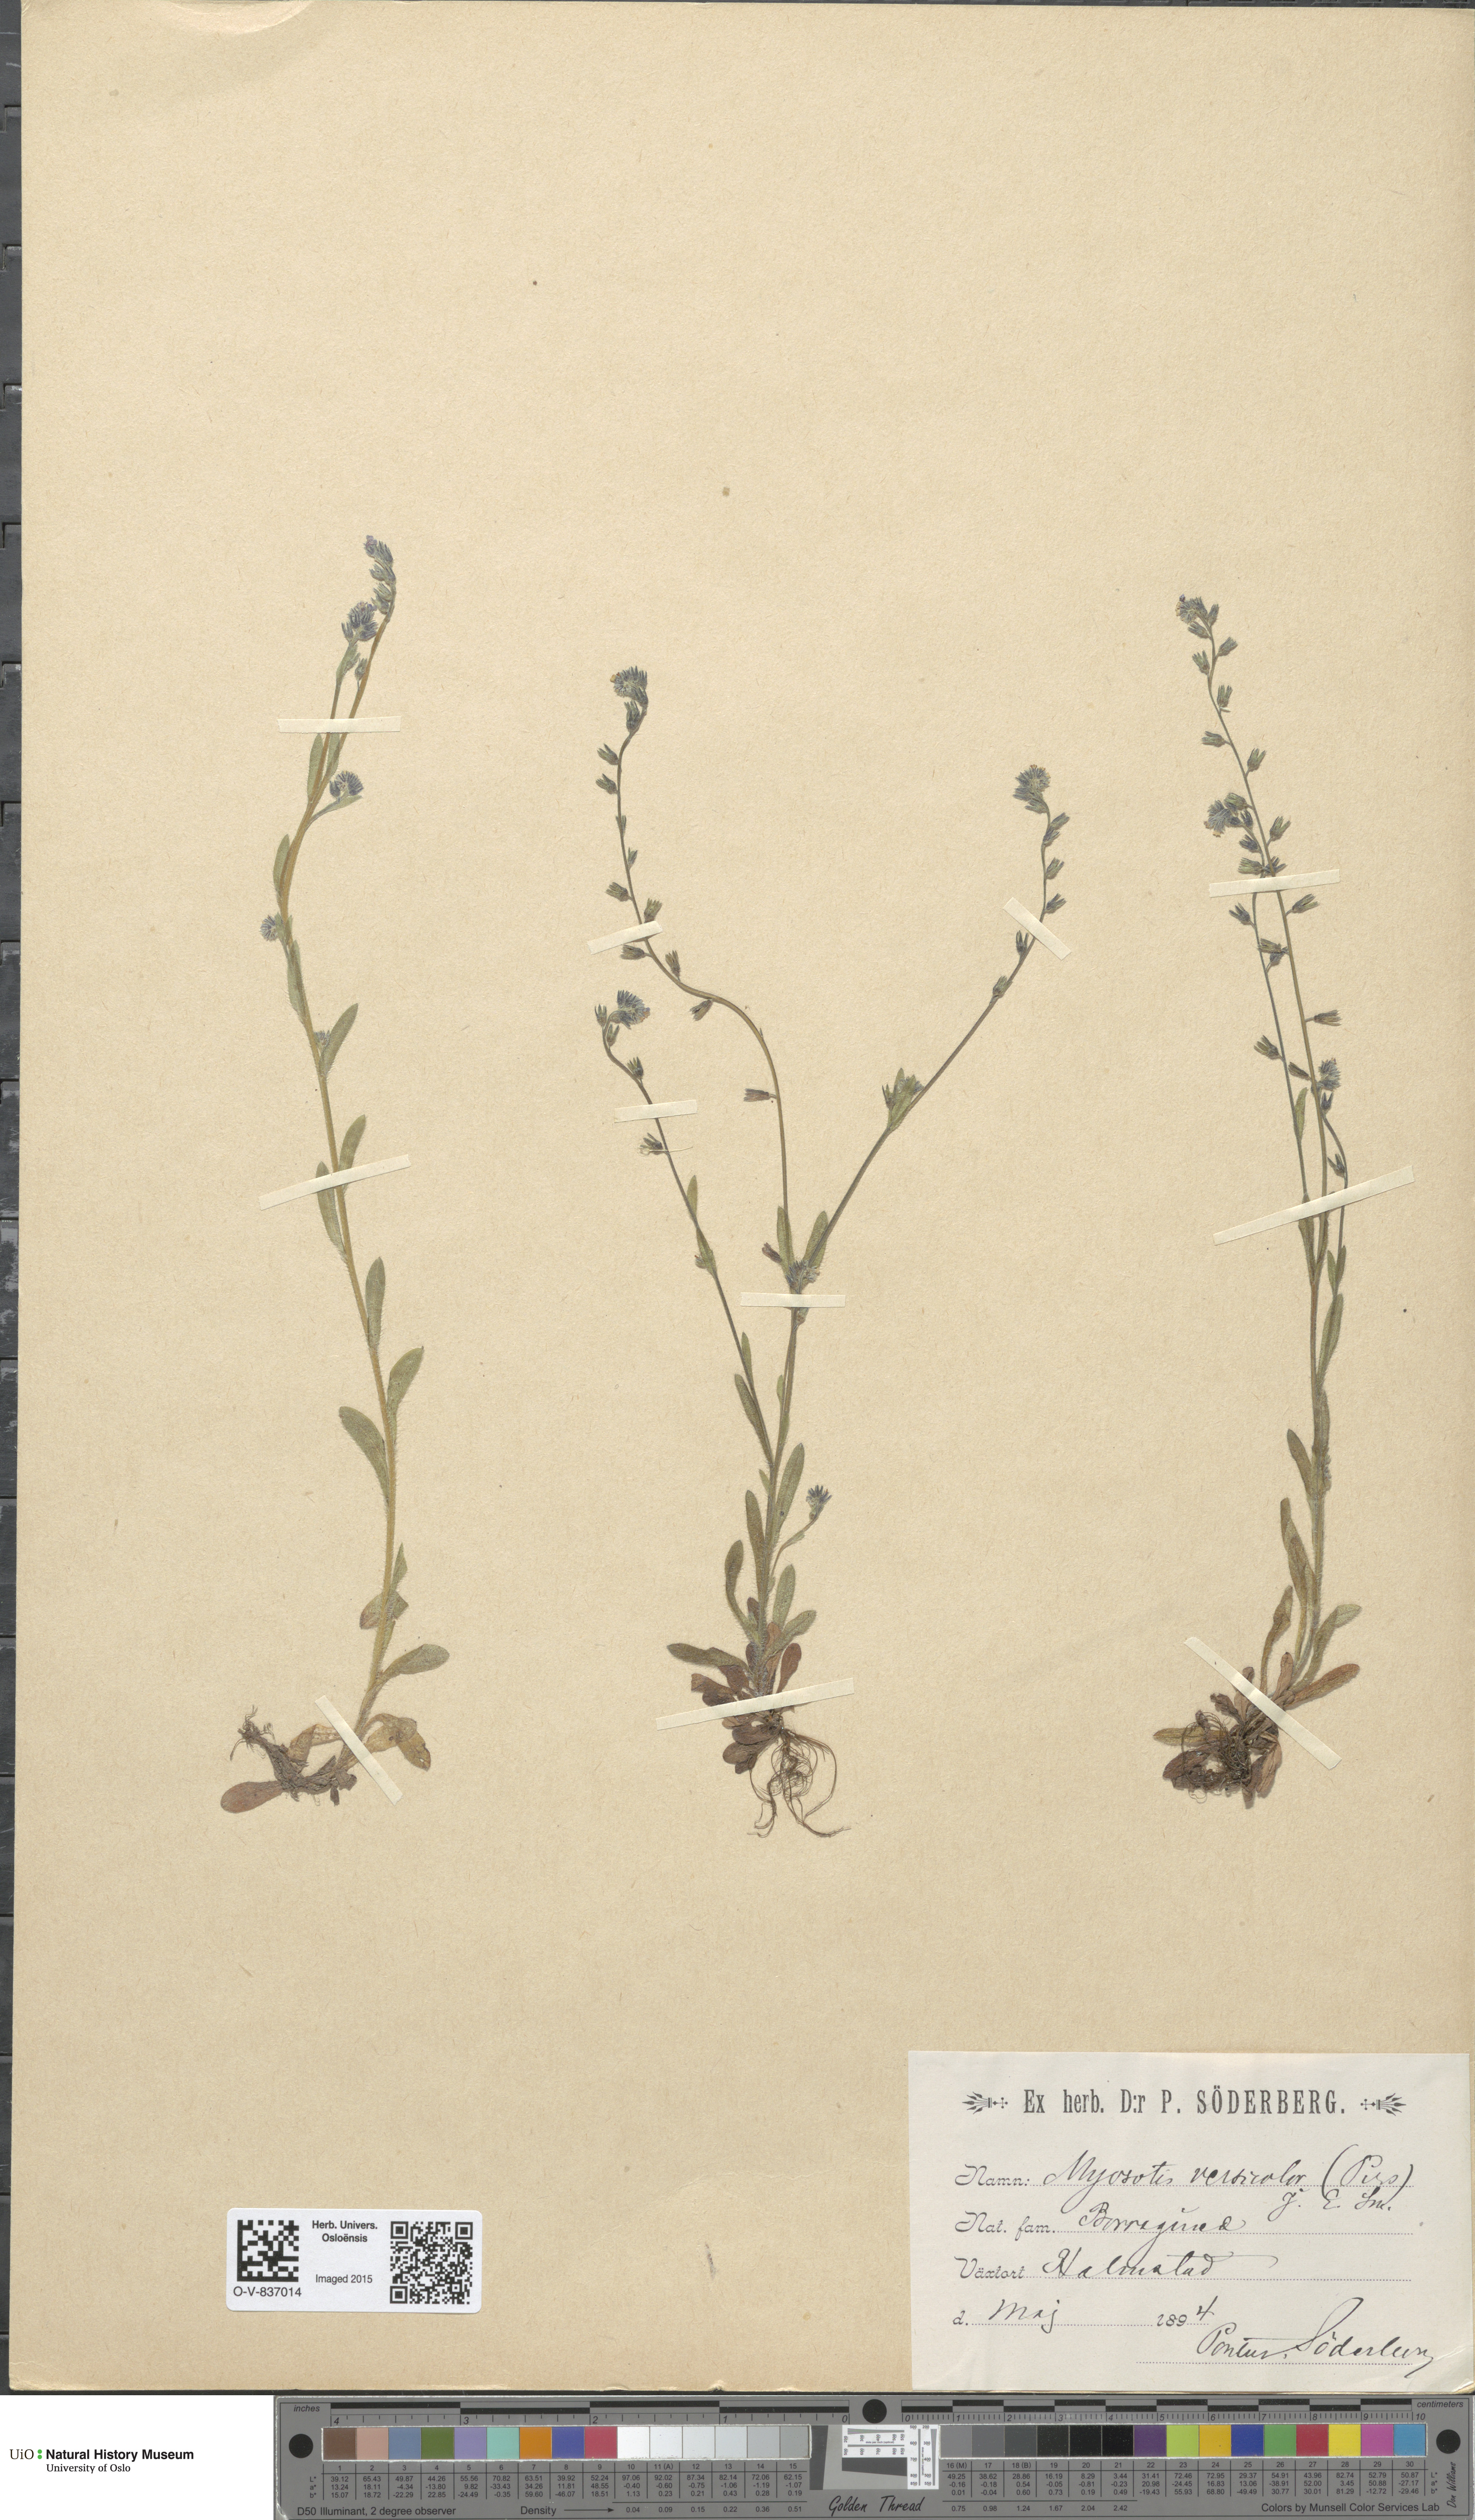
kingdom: Plantae
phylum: Tracheophyta
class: Magnoliopsida
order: Boraginales
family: Boraginaceae
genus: Myosotis
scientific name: Myosotis discolor
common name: Changing forget-me-not
